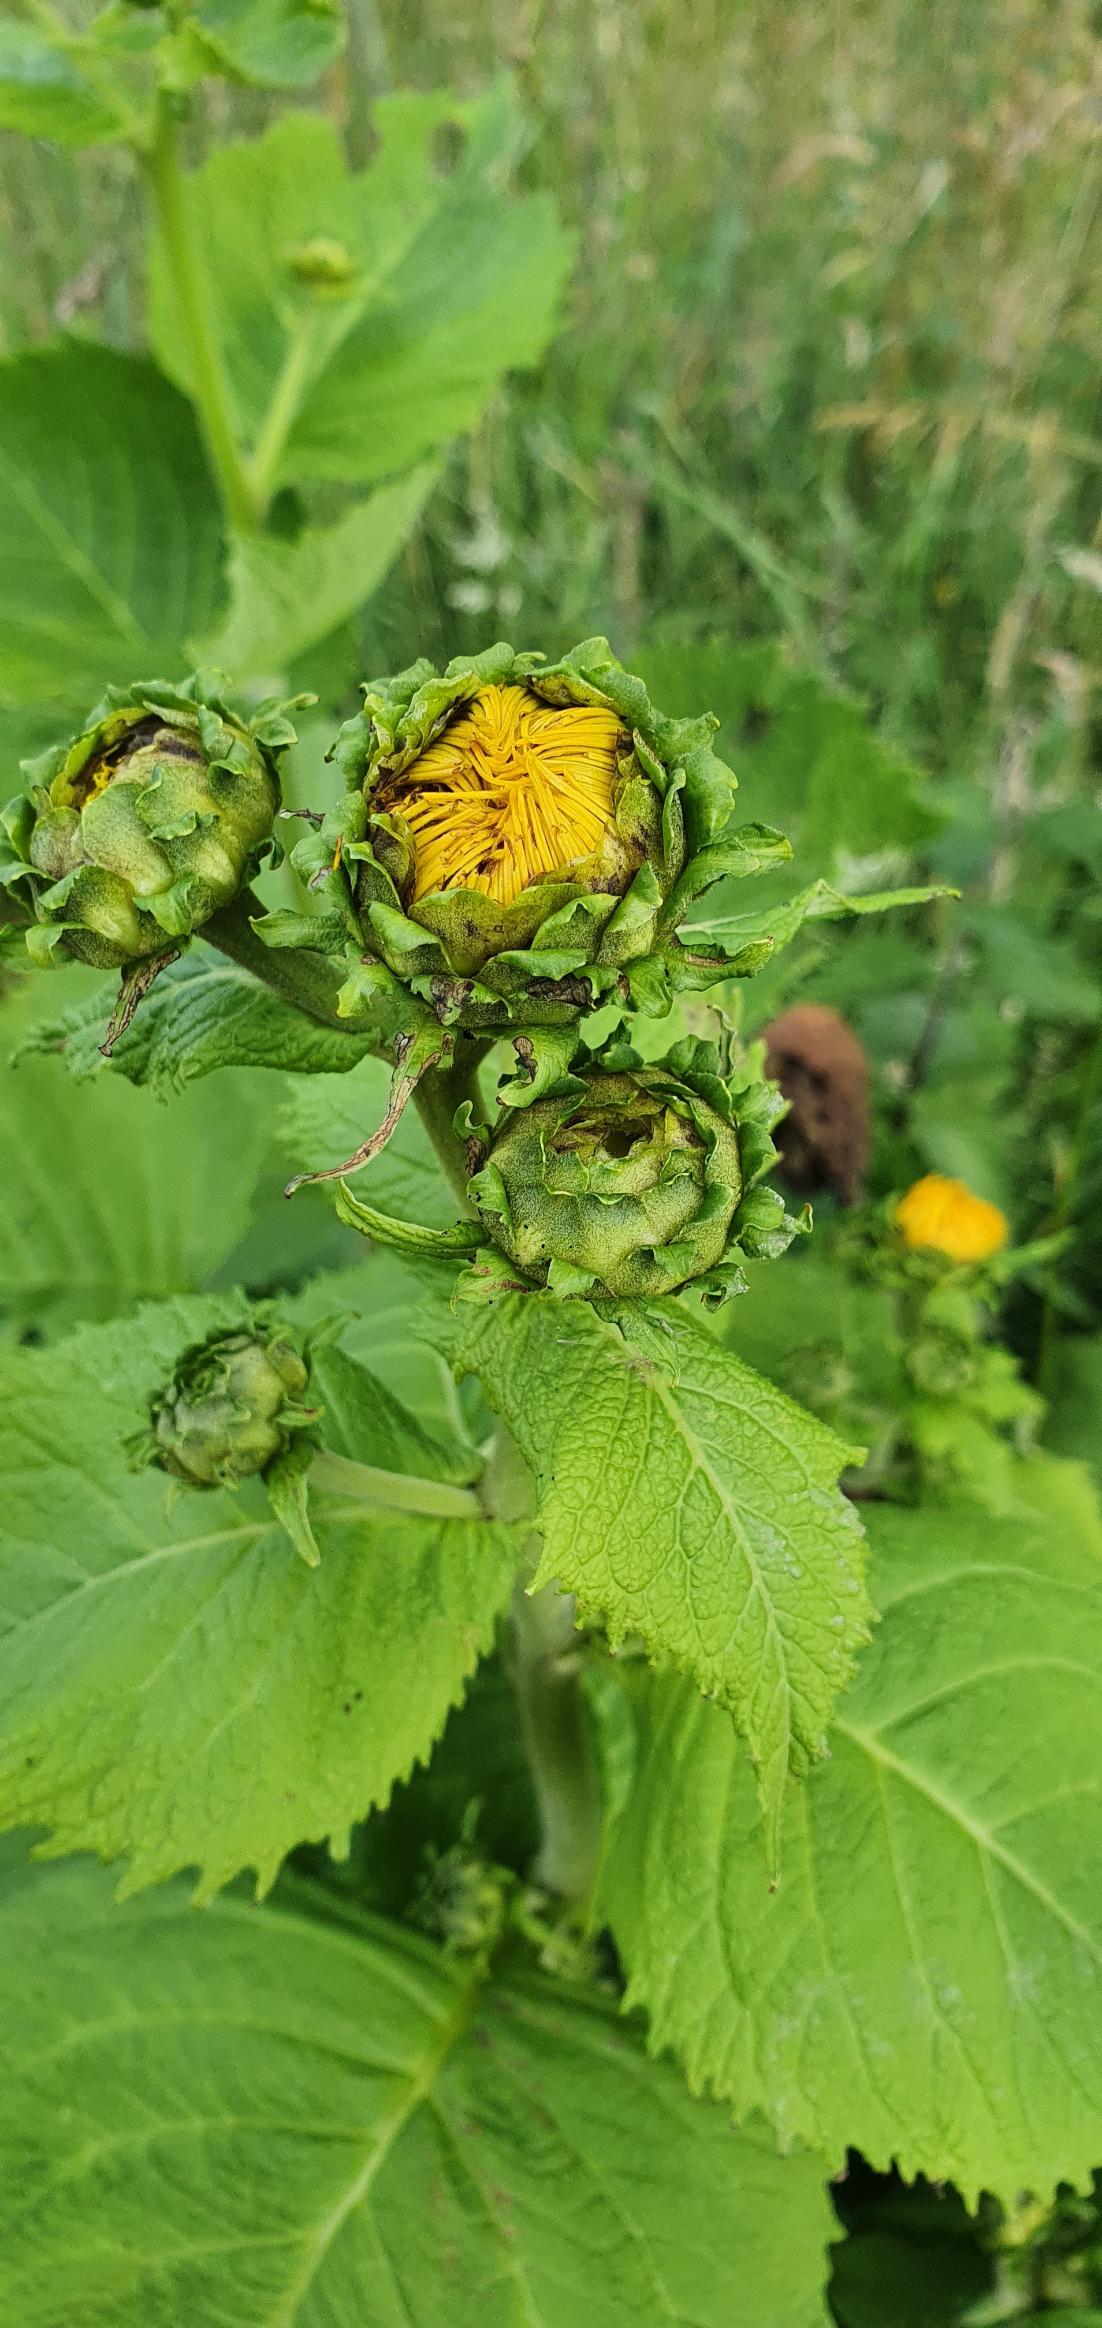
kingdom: Plantae
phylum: Tracheophyta
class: Magnoliopsida
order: Asterales
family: Asteraceae
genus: Telekia
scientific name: Telekia speciosa
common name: Tusindstråle
